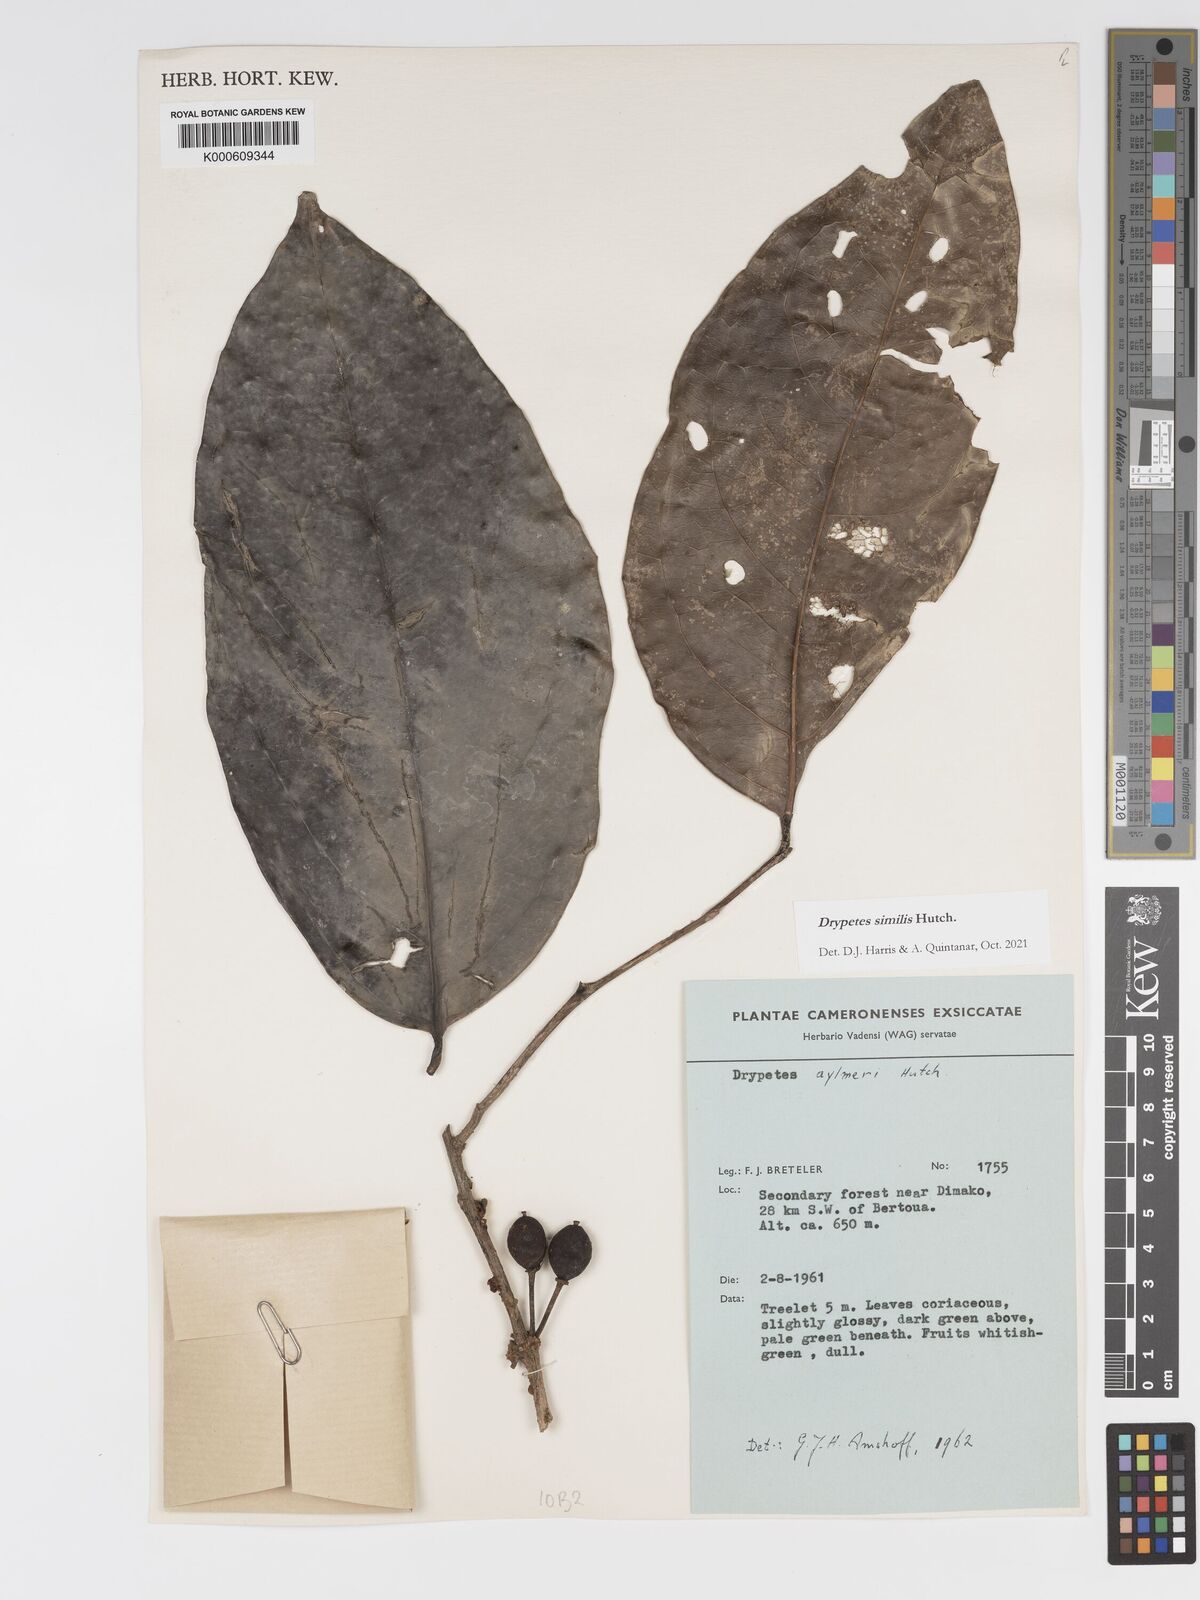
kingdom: Plantae
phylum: Tracheophyta
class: Magnoliopsida
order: Malpighiales
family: Putranjivaceae
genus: Drypetes
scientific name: Drypetes similis
